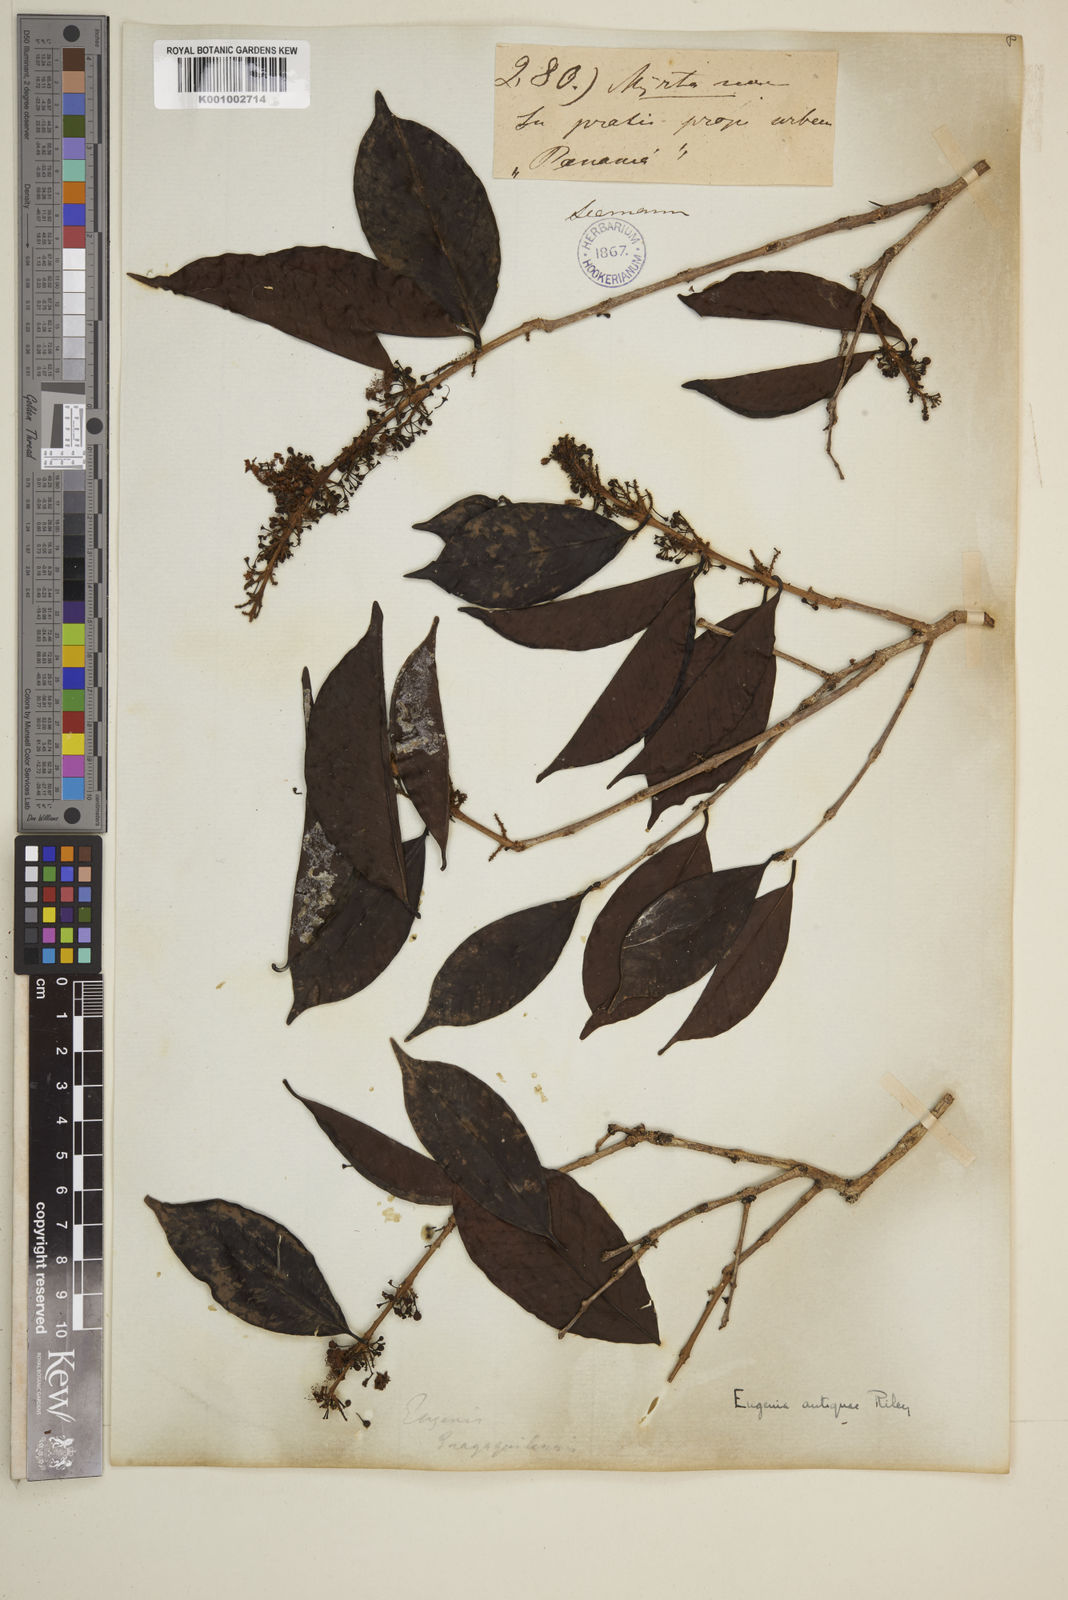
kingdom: Plantae
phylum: Tracheophyta
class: Magnoliopsida
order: Myrtales
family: Myrtaceae
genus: Eugenia
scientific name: Eugenia acapulcensis
